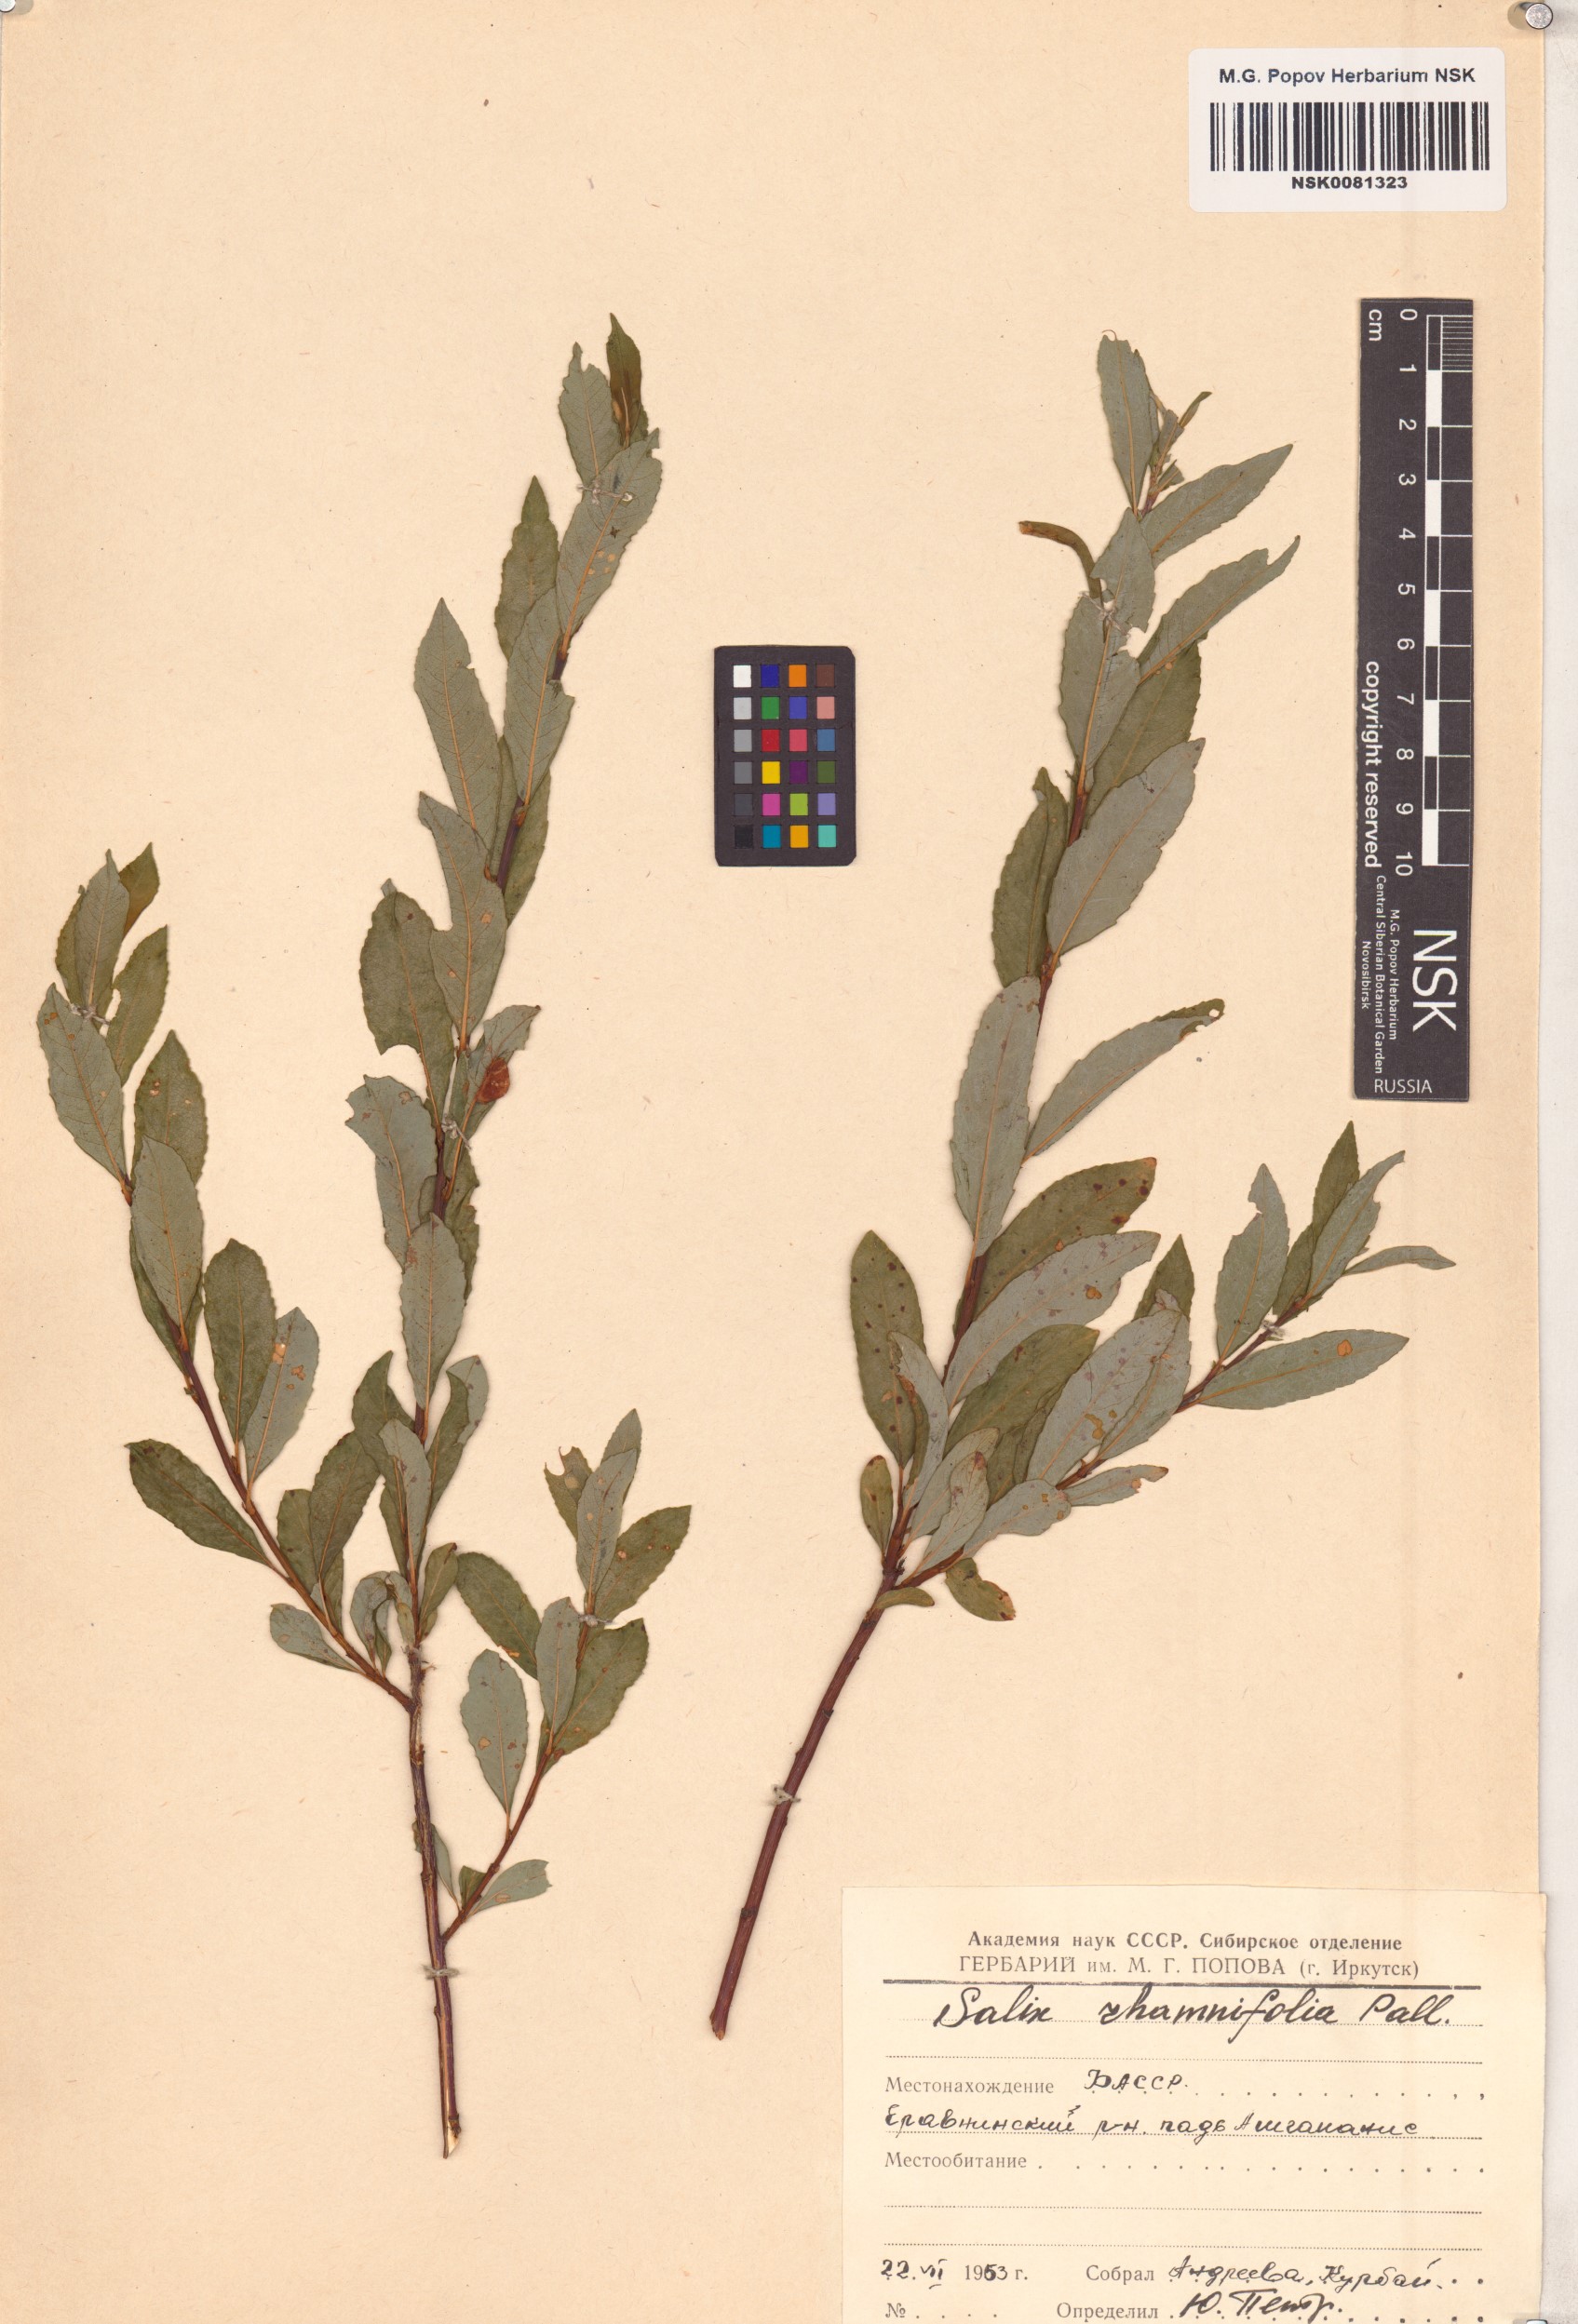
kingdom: Plantae
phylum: Tracheophyta
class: Magnoliopsida
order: Malpighiales
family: Salicaceae
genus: Salix
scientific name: Salix rhamnifolia
